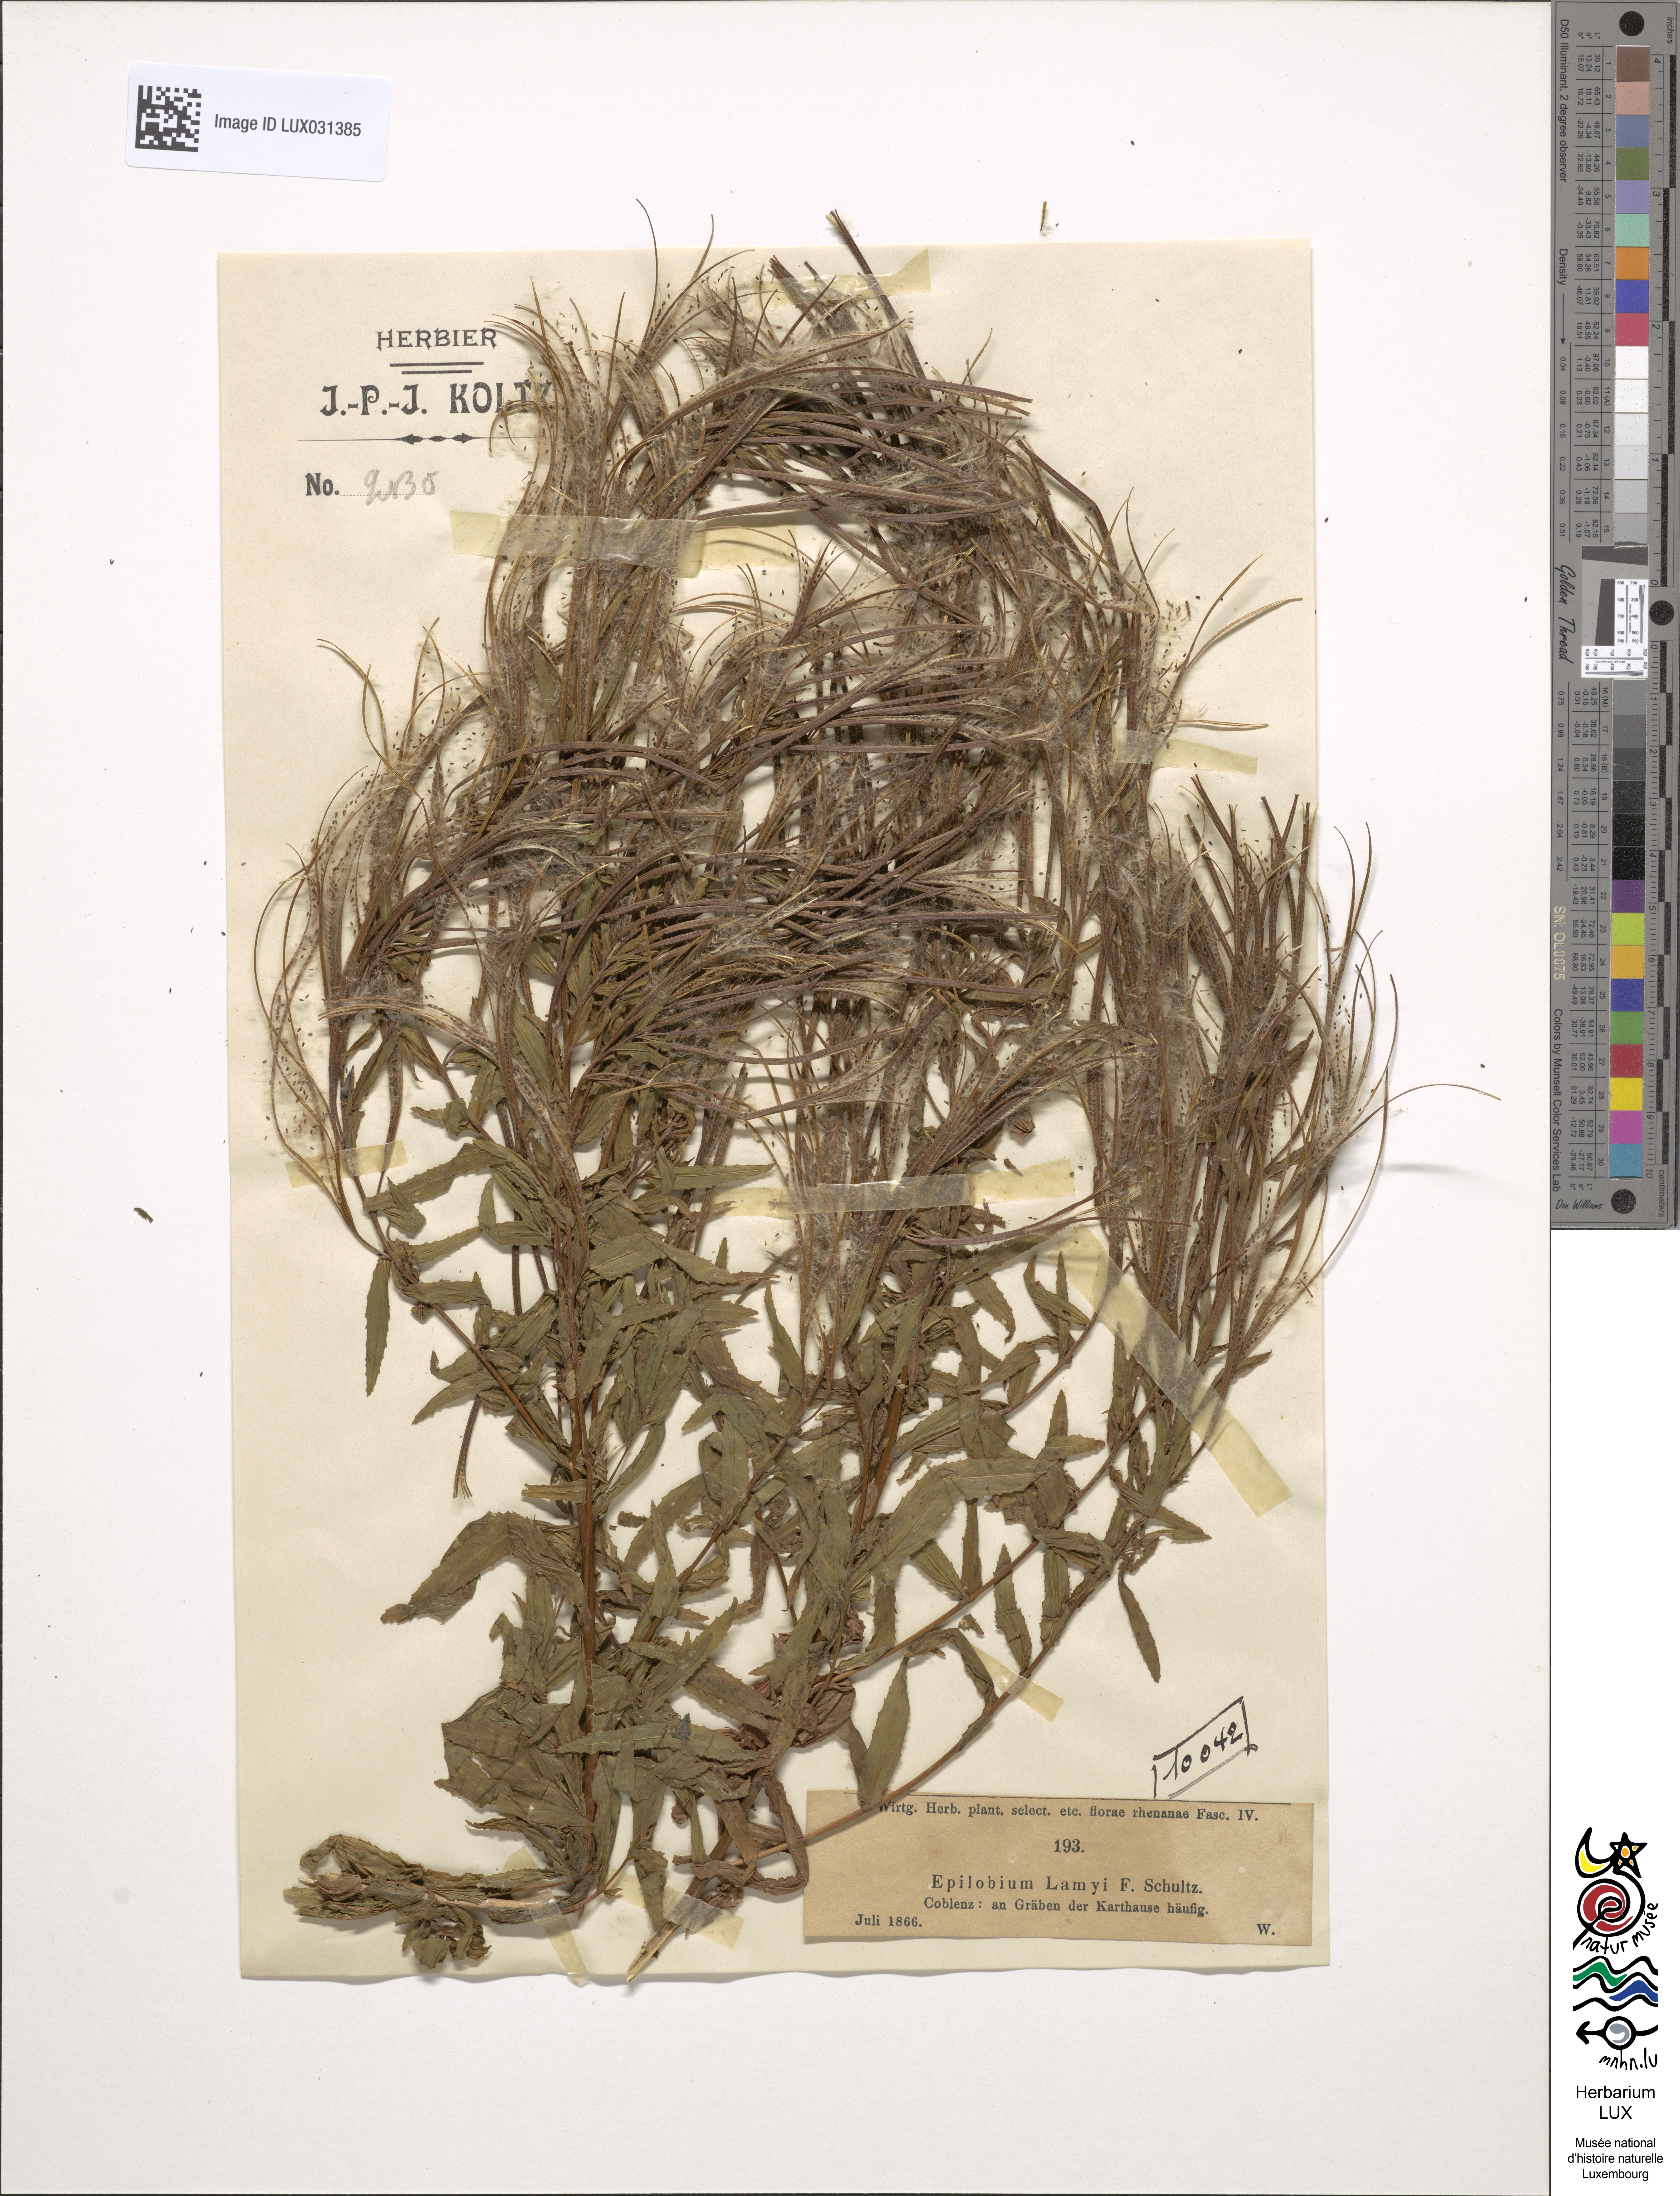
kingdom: Plantae
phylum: Tracheophyta
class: Magnoliopsida
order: Myrtales
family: Onagraceae
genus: Epilobium
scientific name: Epilobium lamyi
